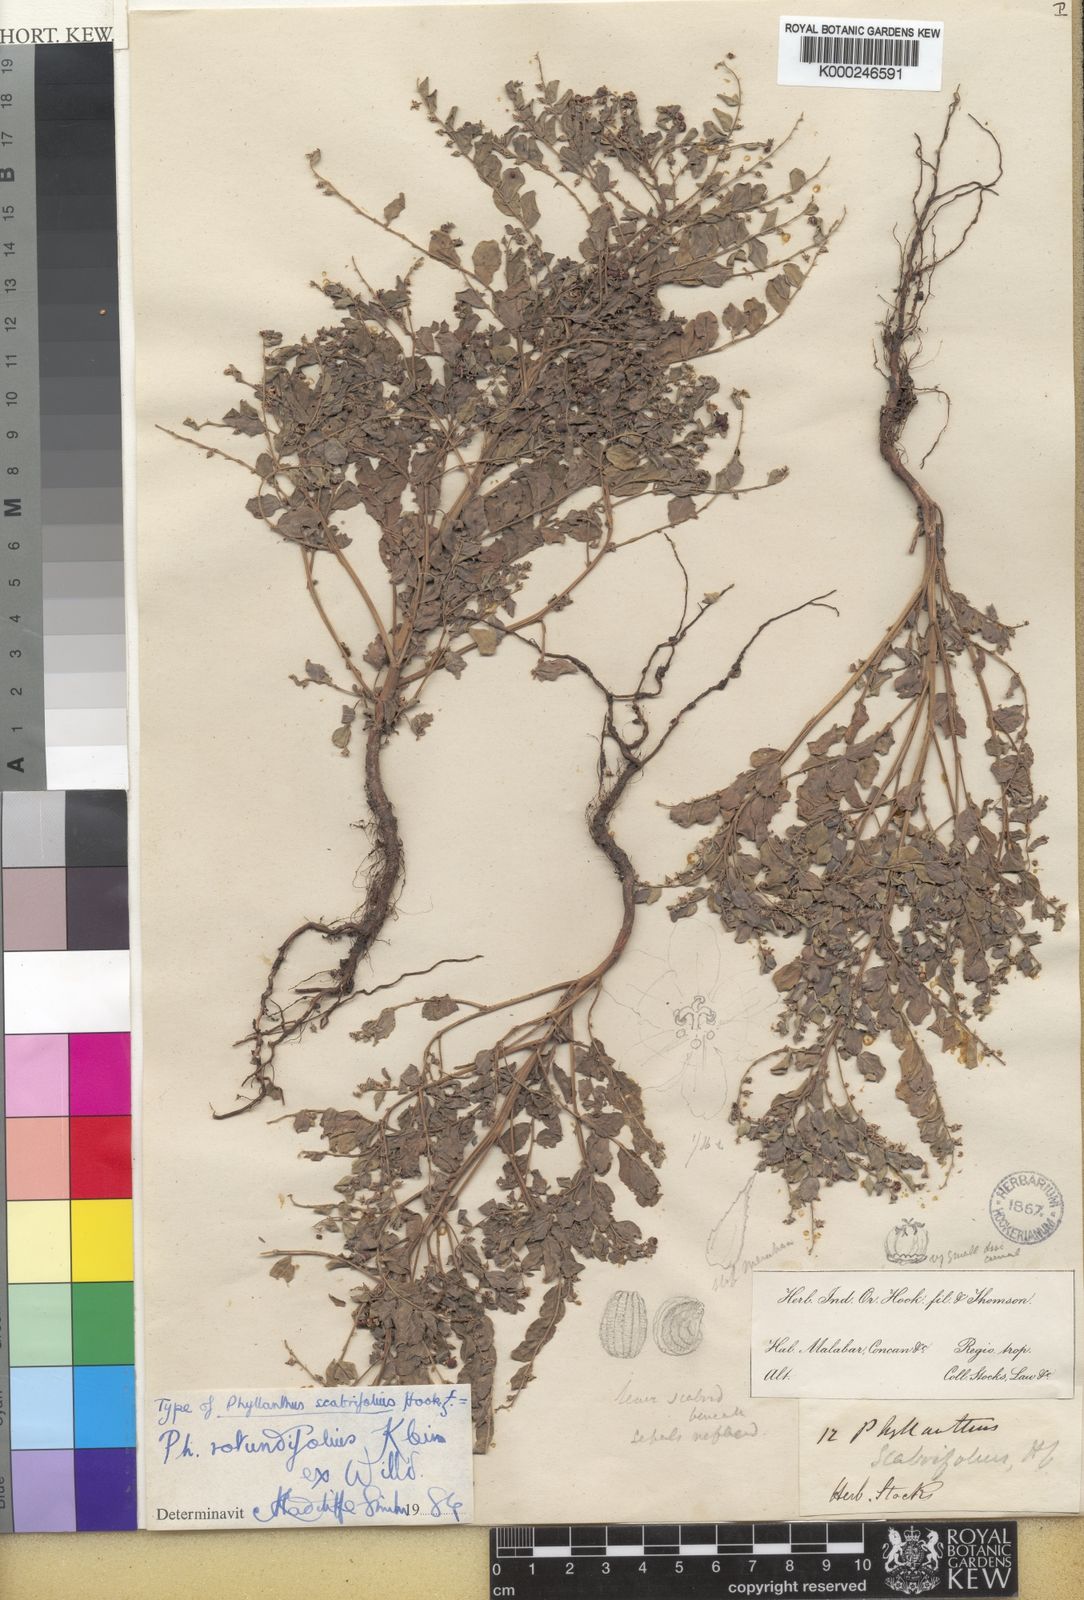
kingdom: Plantae
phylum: Tracheophyta
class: Magnoliopsida
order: Malpighiales
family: Phyllanthaceae
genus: Phyllanthus
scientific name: Phyllanthus rotundifolius
